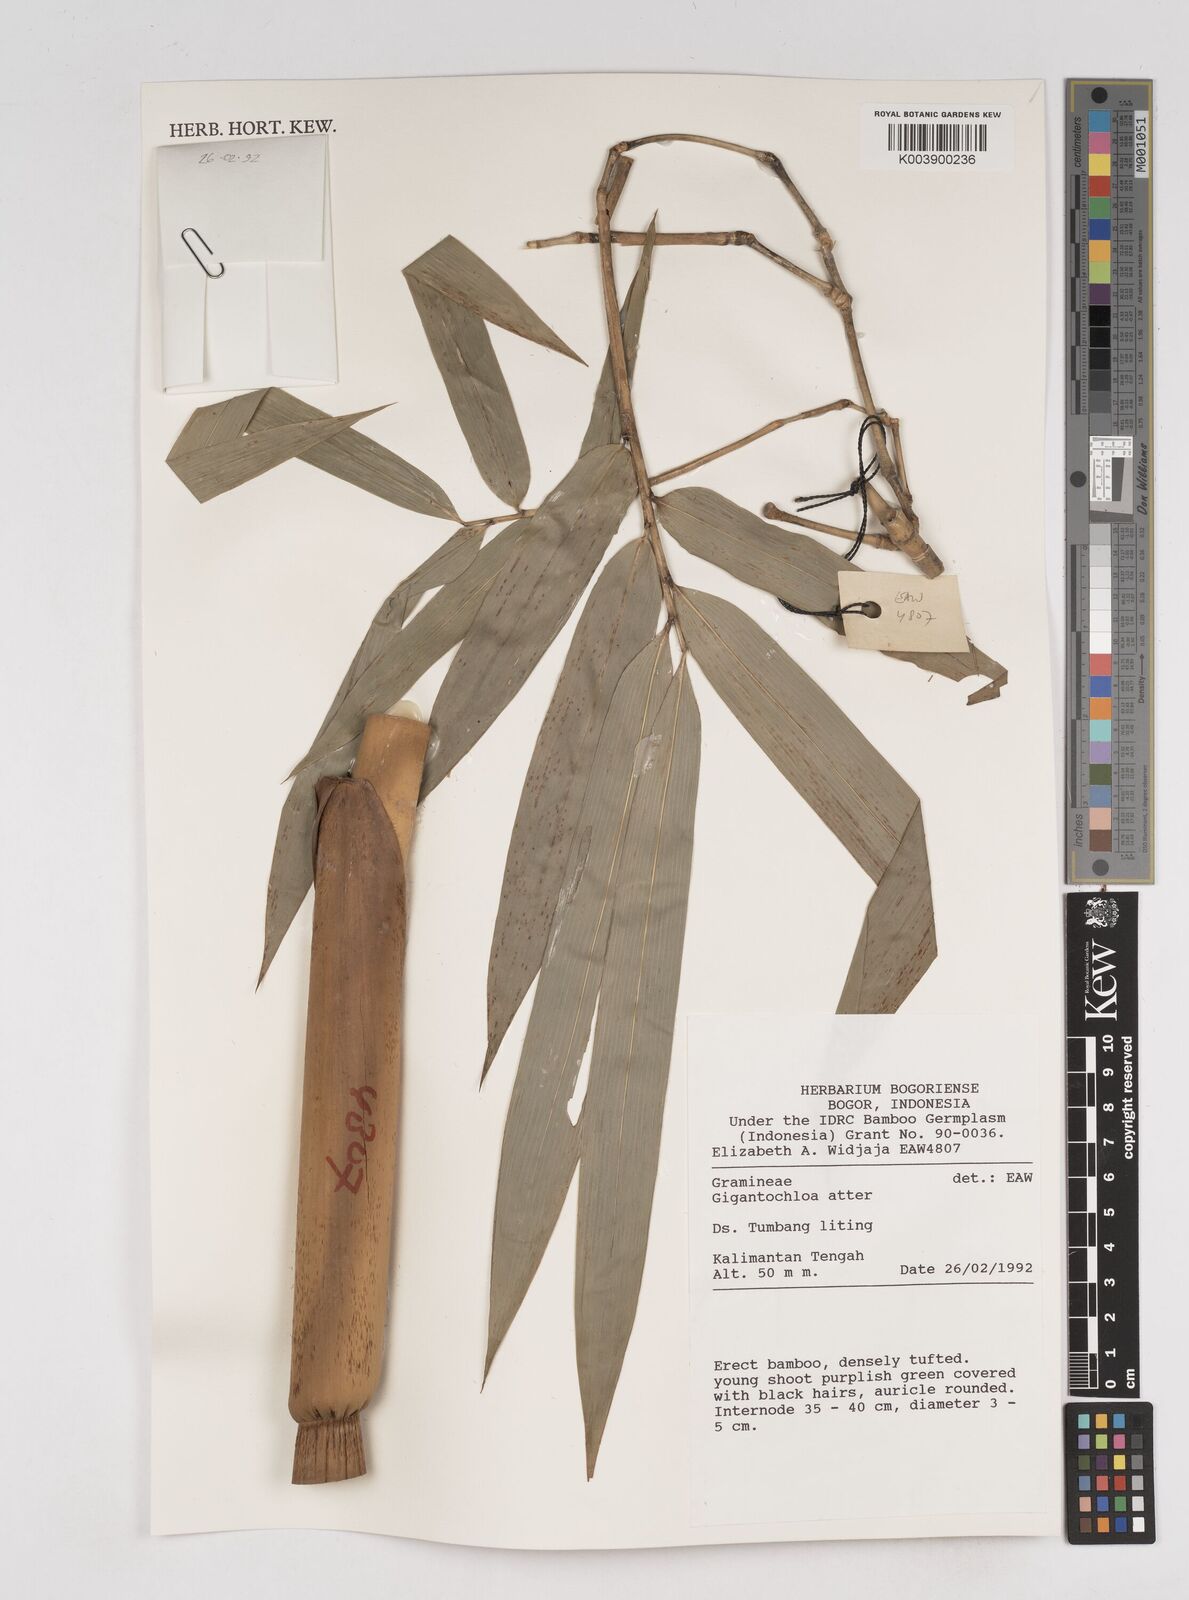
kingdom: Plantae
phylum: Tracheophyta
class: Liliopsida
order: Poales
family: Poaceae
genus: Gigantochloa
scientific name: Gigantochloa atter
